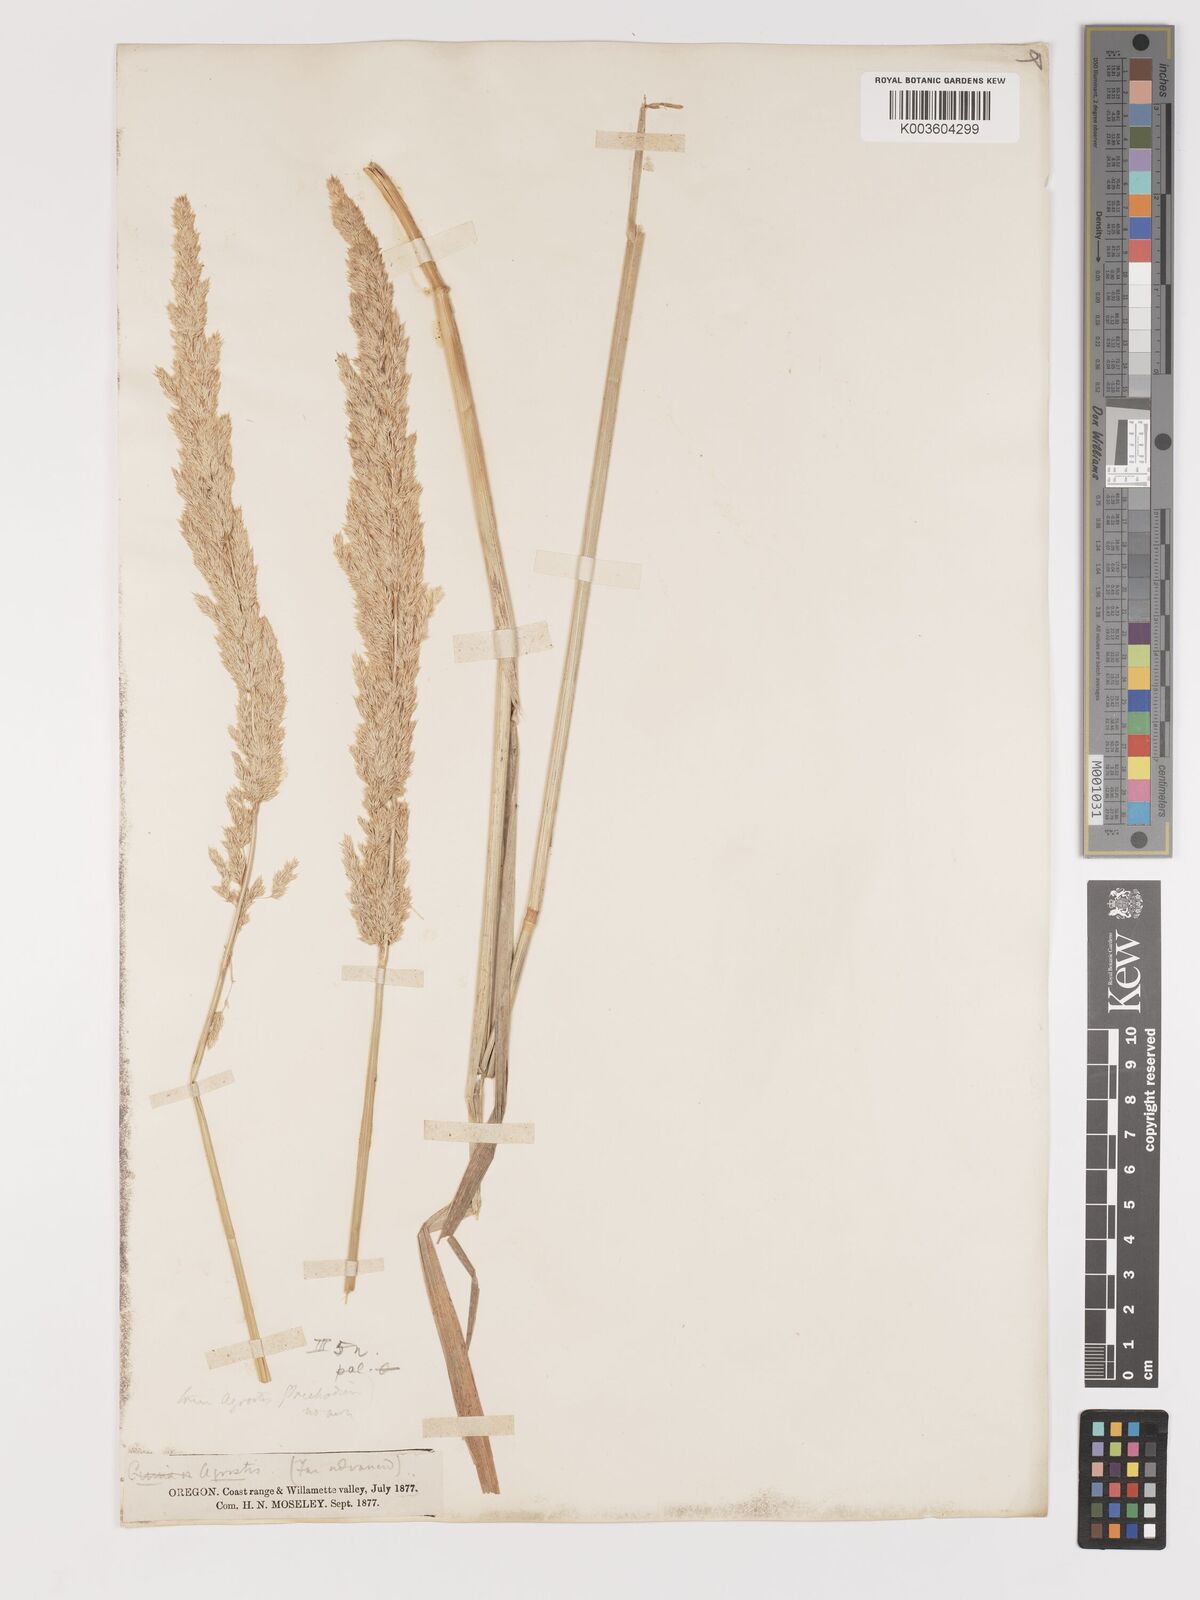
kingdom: Plantae
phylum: Tracheophyta
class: Liliopsida
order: Poales
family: Poaceae
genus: Agrostis
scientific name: Agrostis exarata
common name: Spike bent
